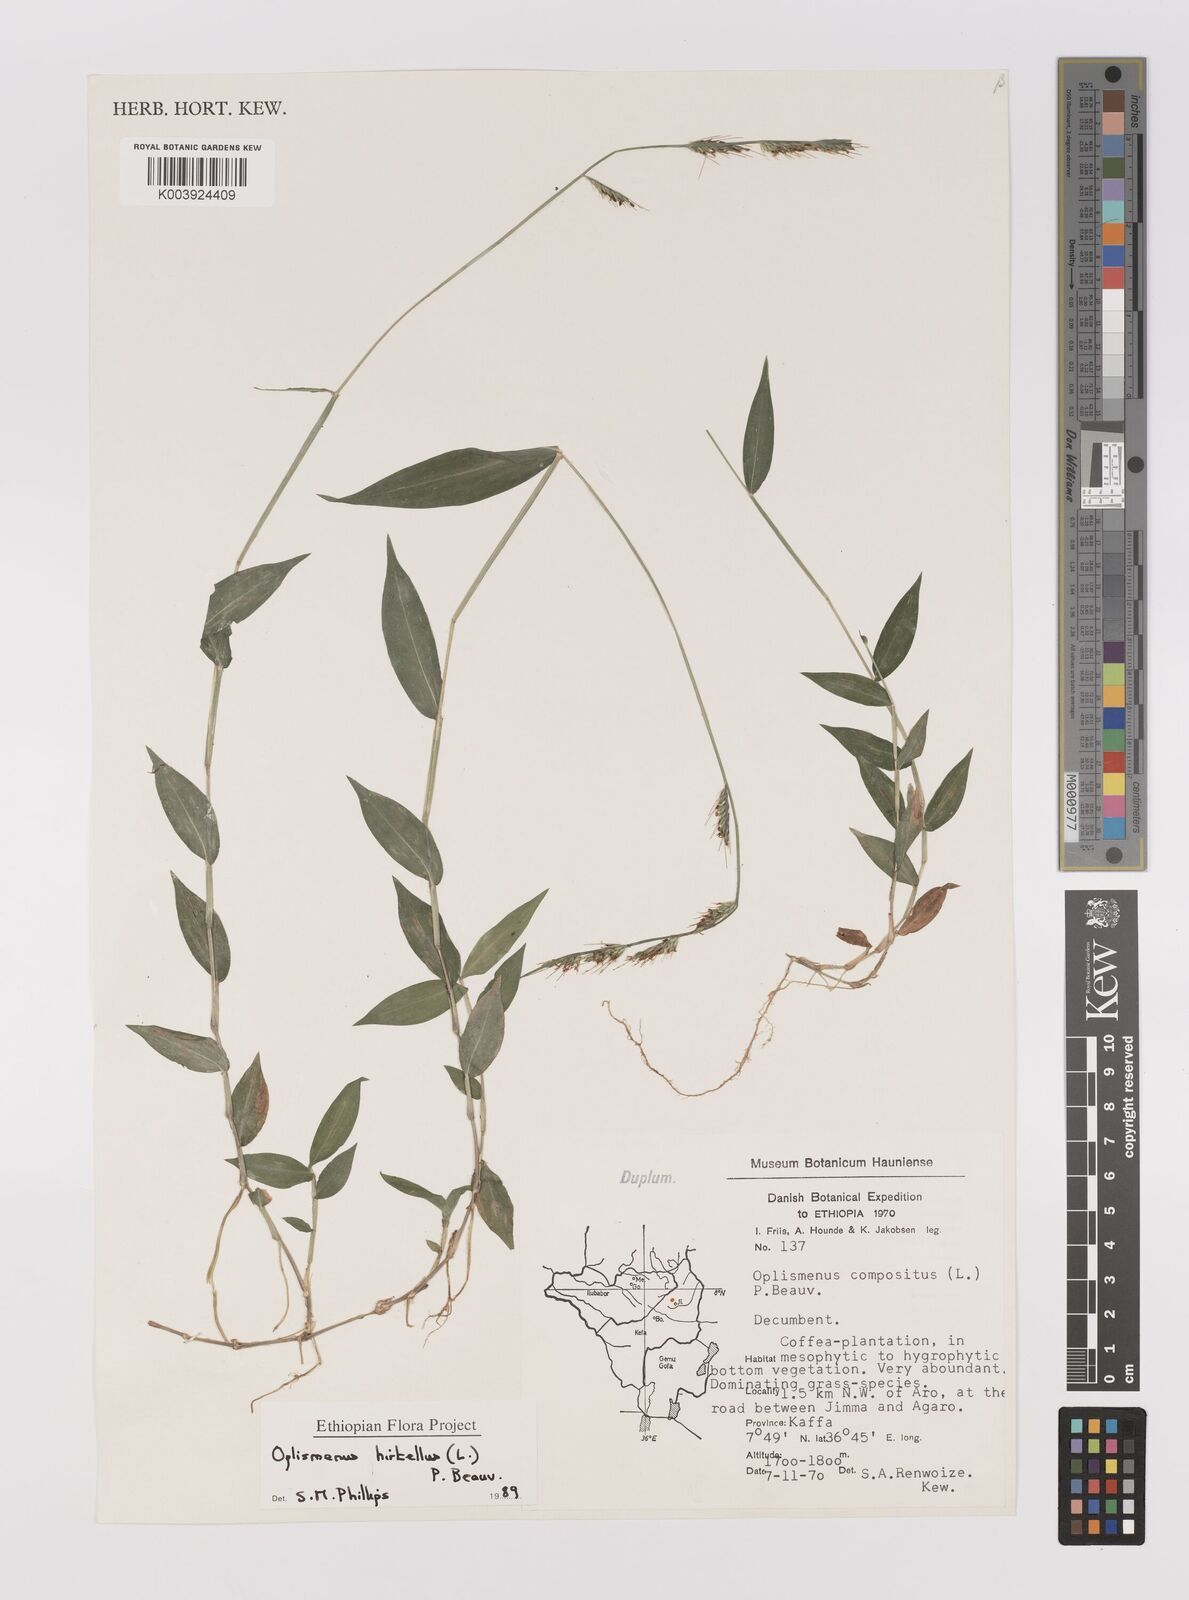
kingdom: Plantae
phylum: Tracheophyta
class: Liliopsida
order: Poales
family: Poaceae
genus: Oplismenus
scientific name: Oplismenus hirtellus
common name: Basketgrass
